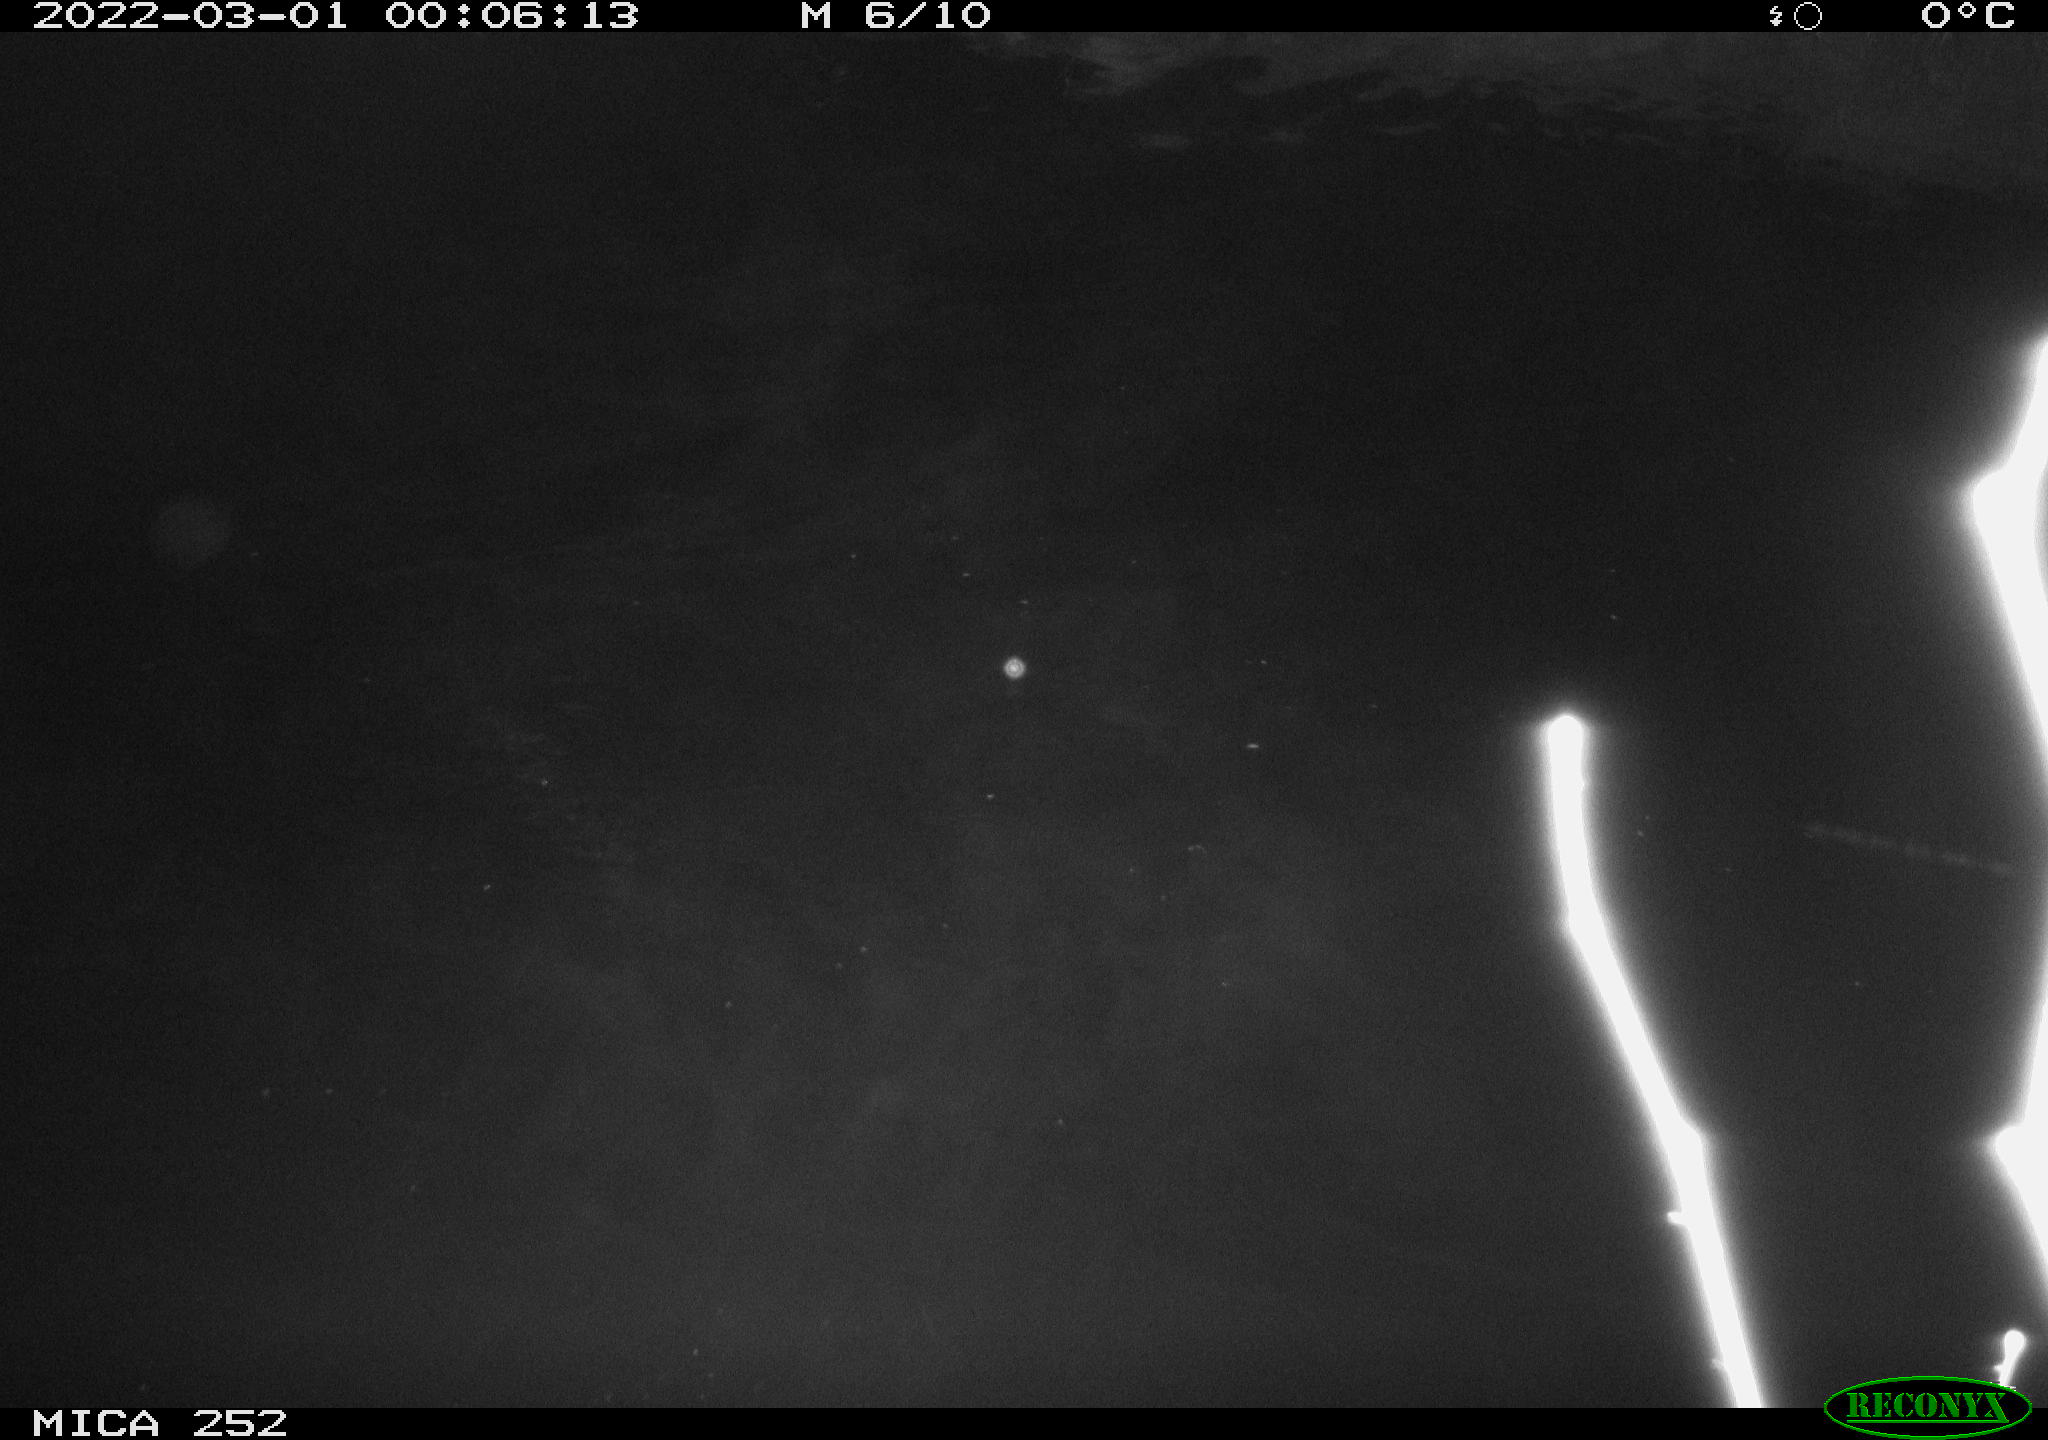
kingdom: Animalia
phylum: Chordata
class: Mammalia
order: Rodentia
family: Castoridae
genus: Castor
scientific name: Castor fiber
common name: Eurasian beaver
